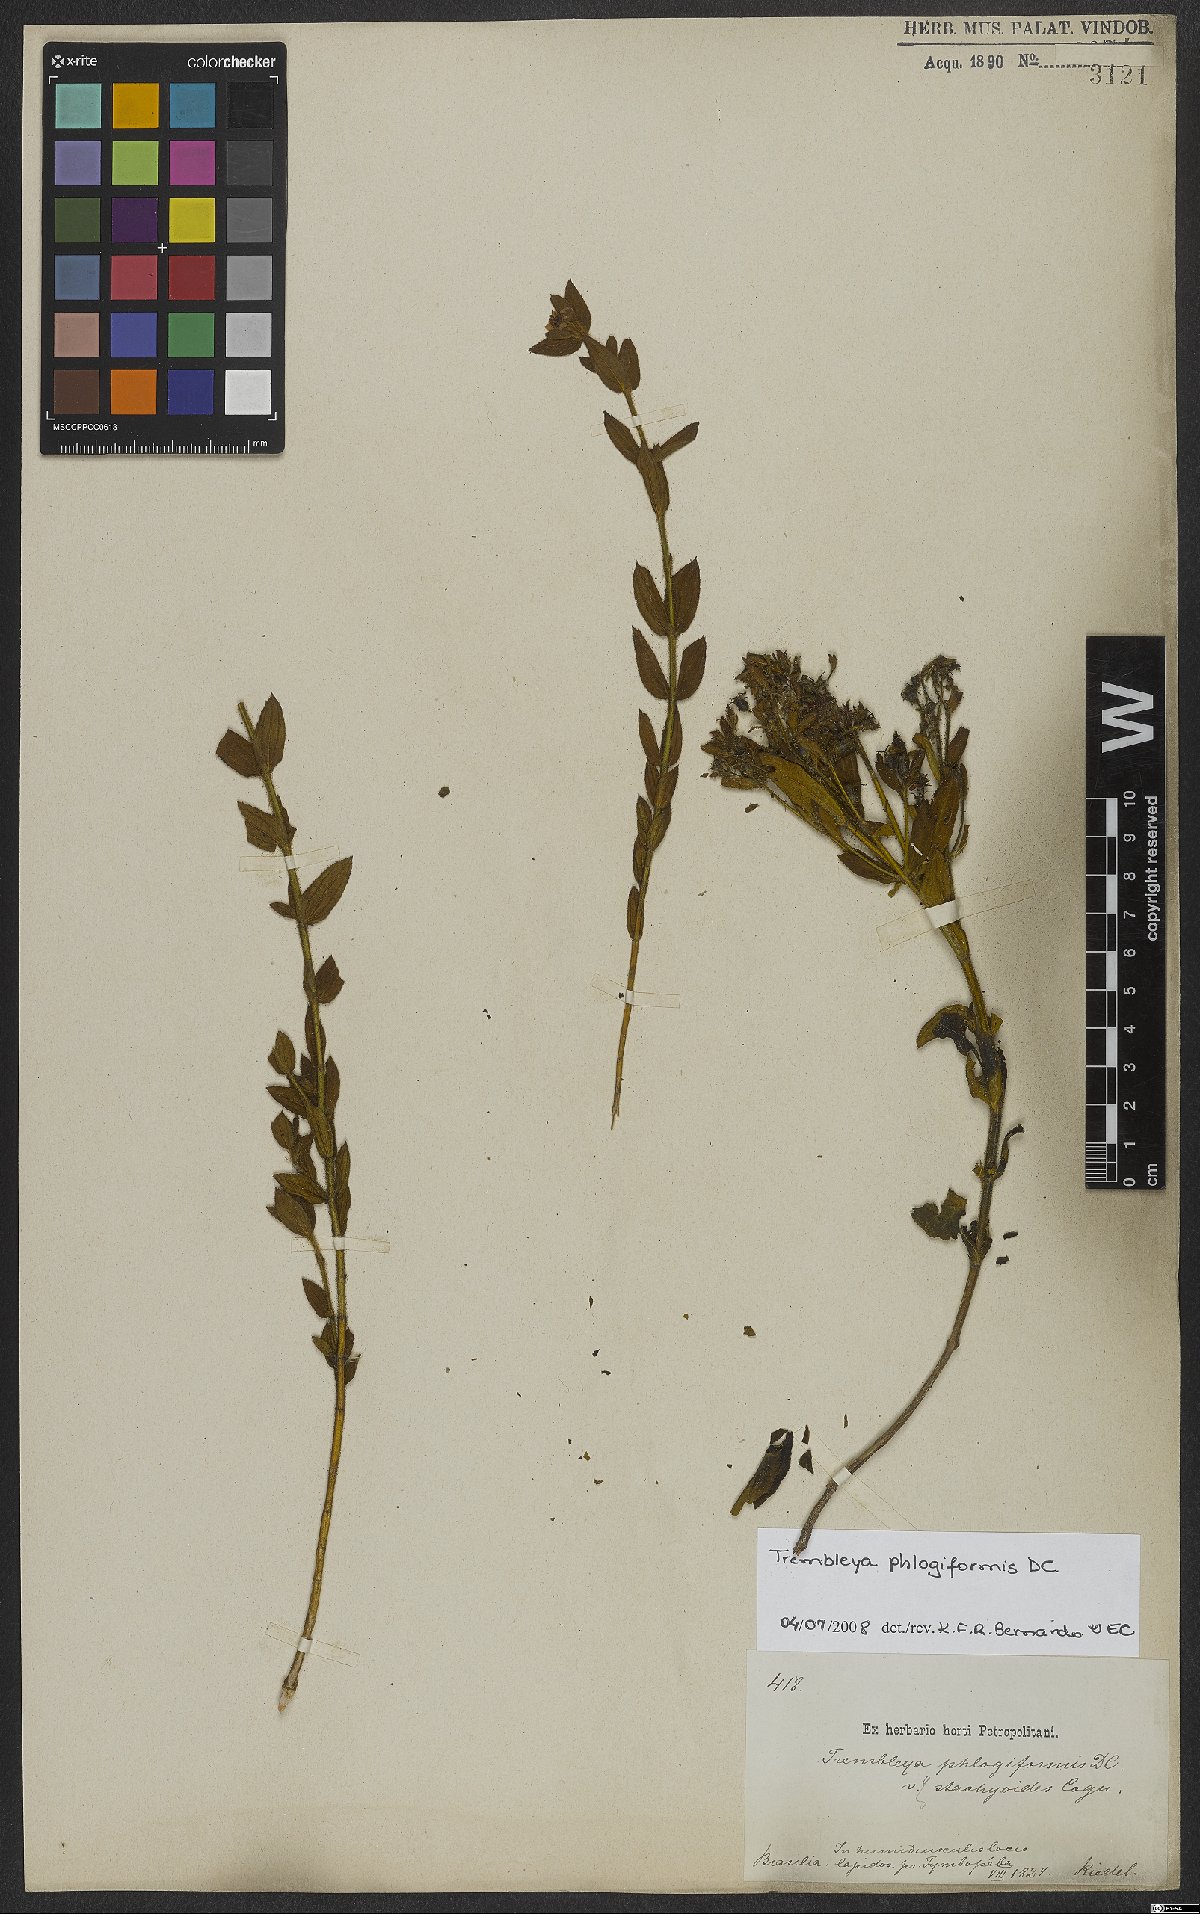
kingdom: Plantae
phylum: Tracheophyta
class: Magnoliopsida
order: Myrtales
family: Melastomataceae
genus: Microlicia
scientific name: Microlicia phlogiformis
